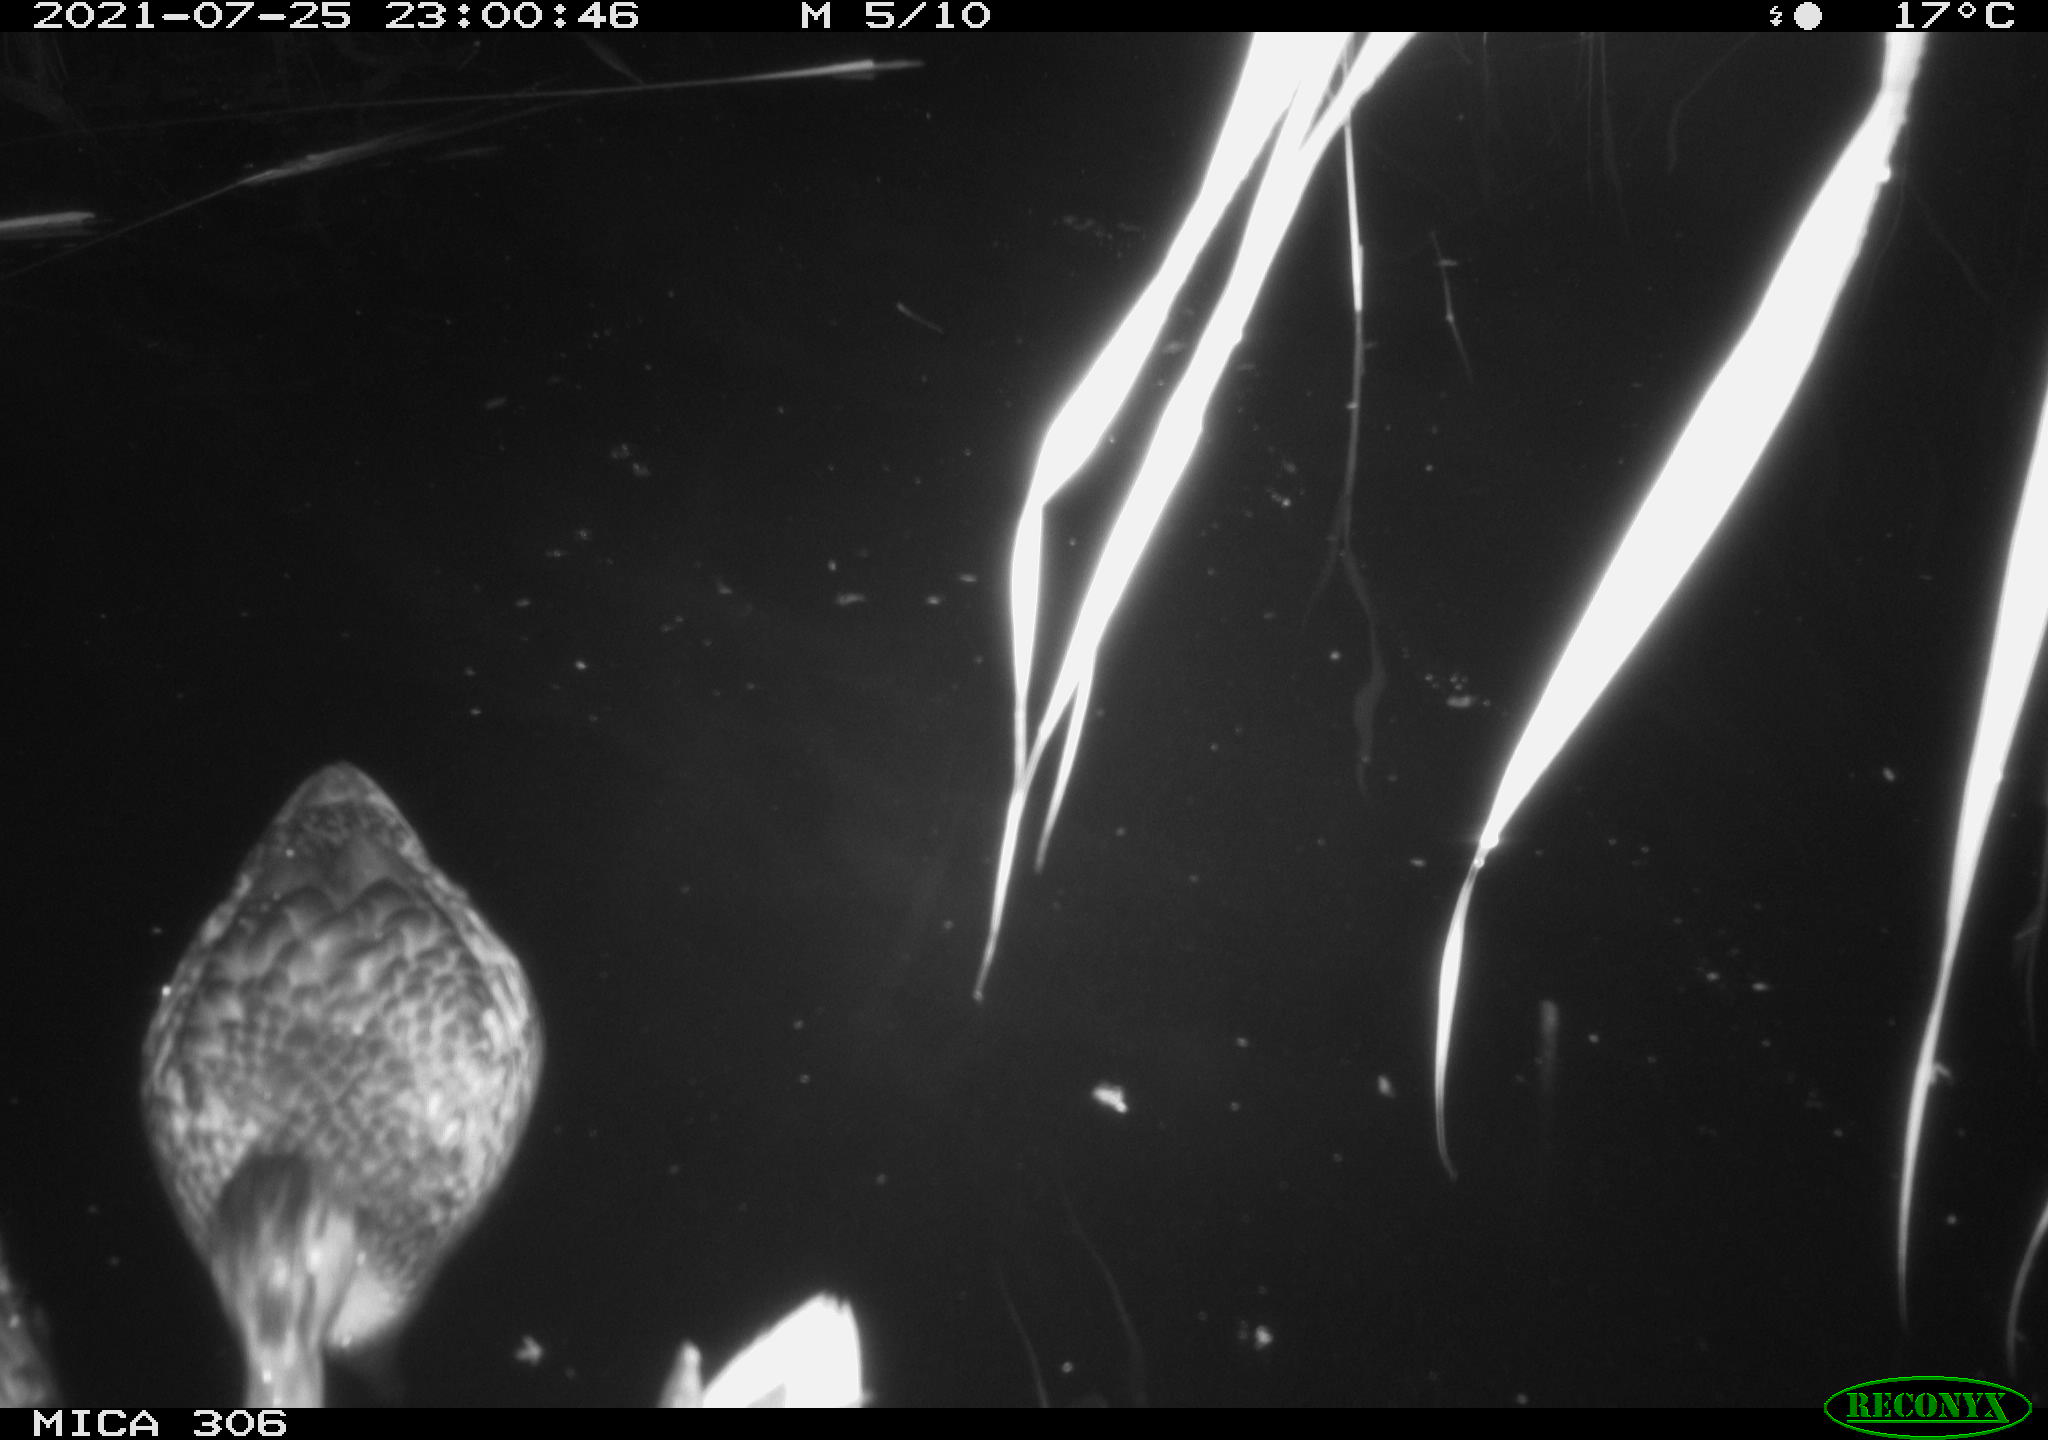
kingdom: Animalia
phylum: Chordata
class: Aves
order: Anseriformes
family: Anatidae
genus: Anas
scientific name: Anas
